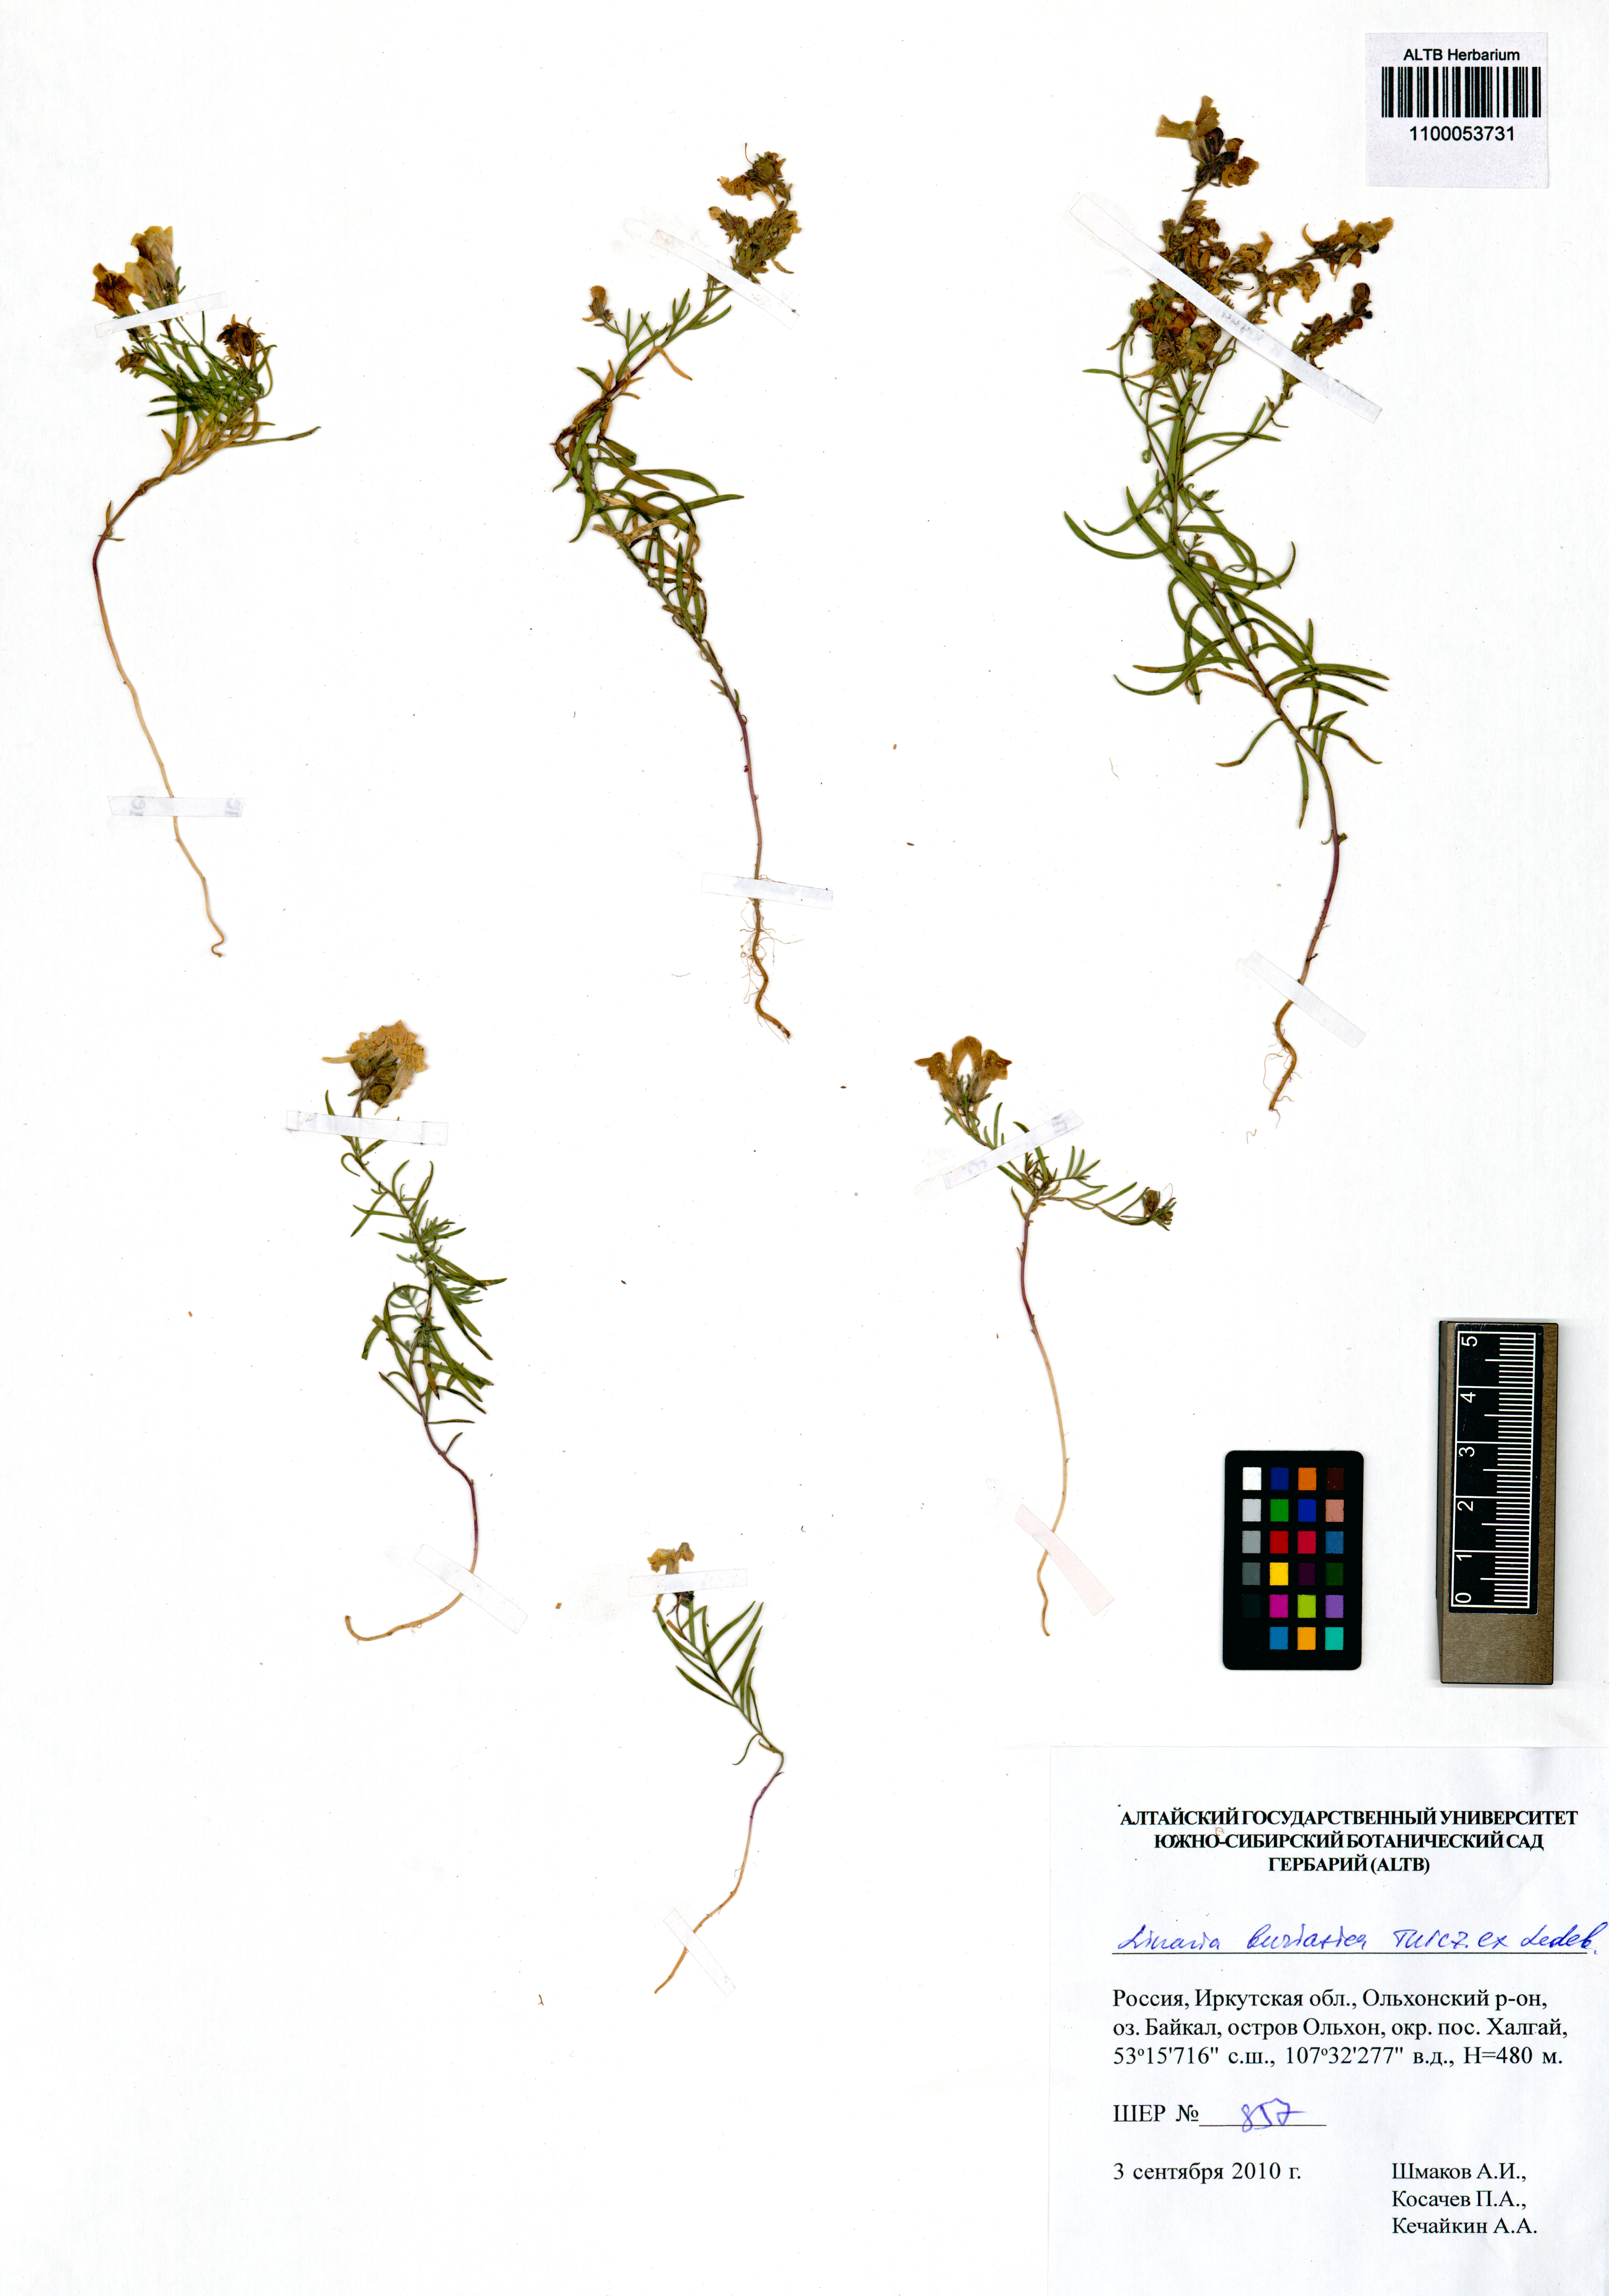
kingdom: Plantae
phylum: Tracheophyta
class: Magnoliopsida
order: Lamiales
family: Plantaginaceae
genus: Linaria
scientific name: Linaria buriatica
